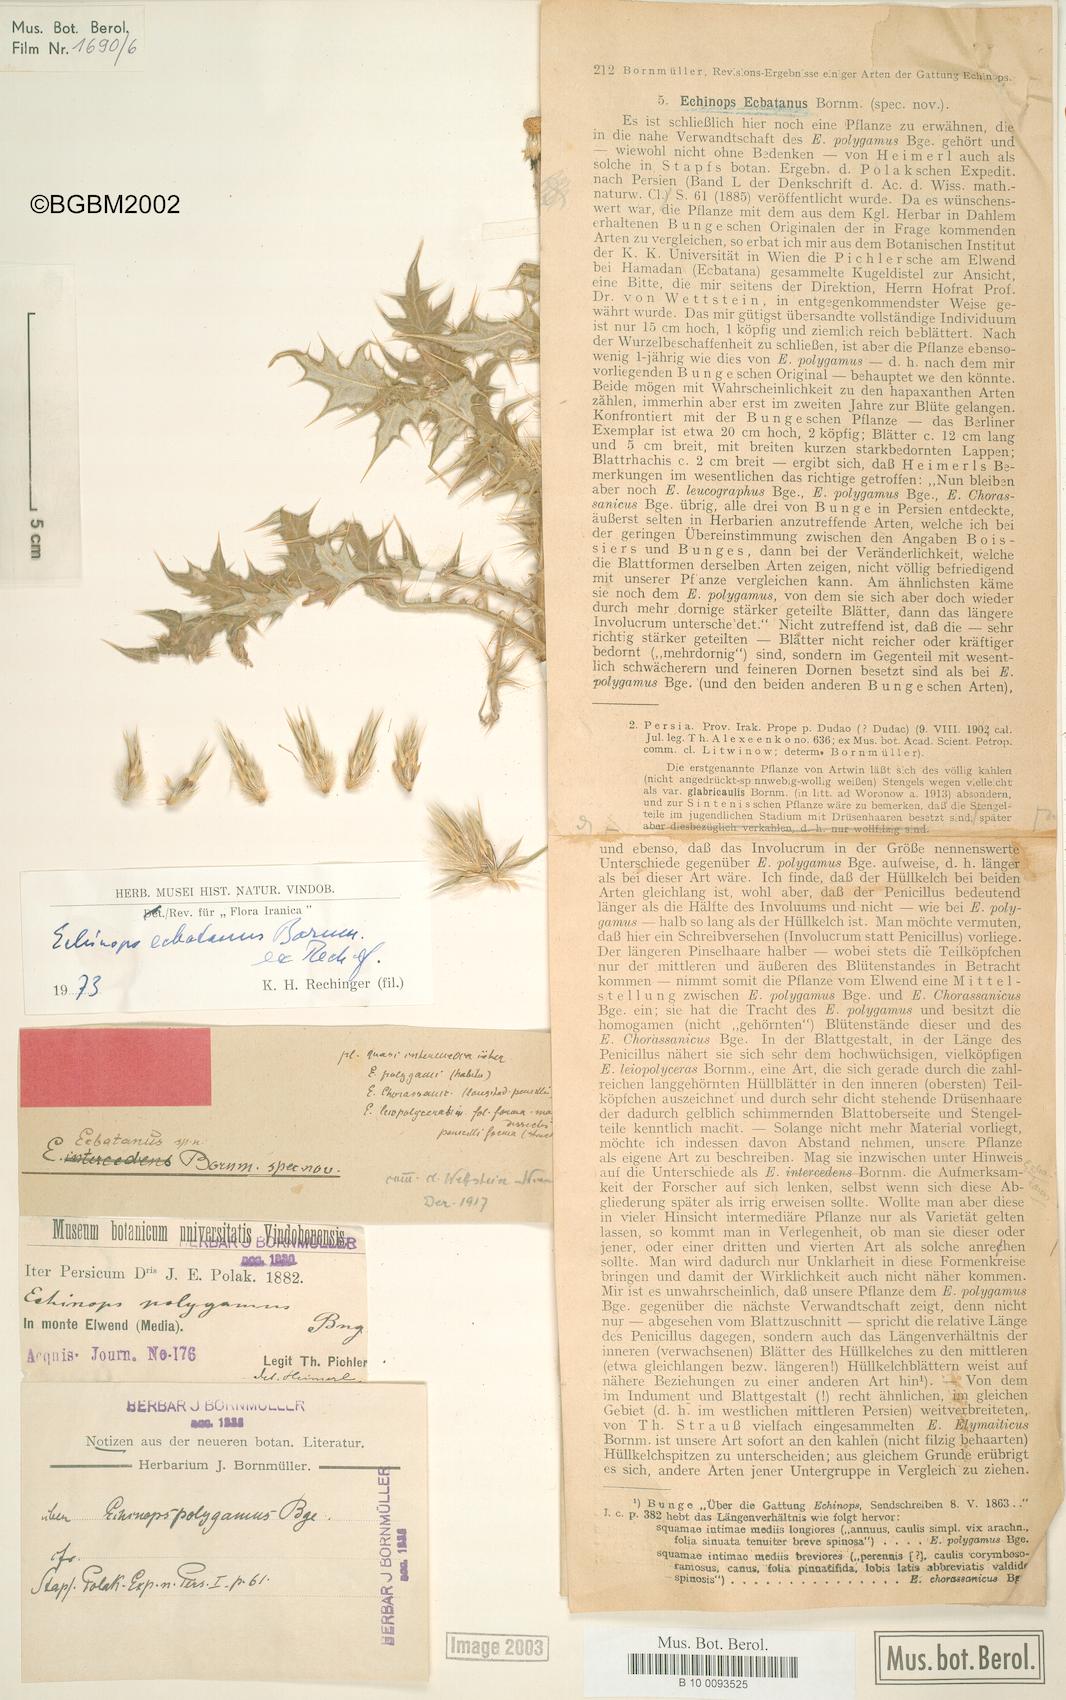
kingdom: Plantae
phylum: Tracheophyta
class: Magnoliopsida
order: Asterales
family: Asteraceae
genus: Echinops
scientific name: Echinops ecbatanus
